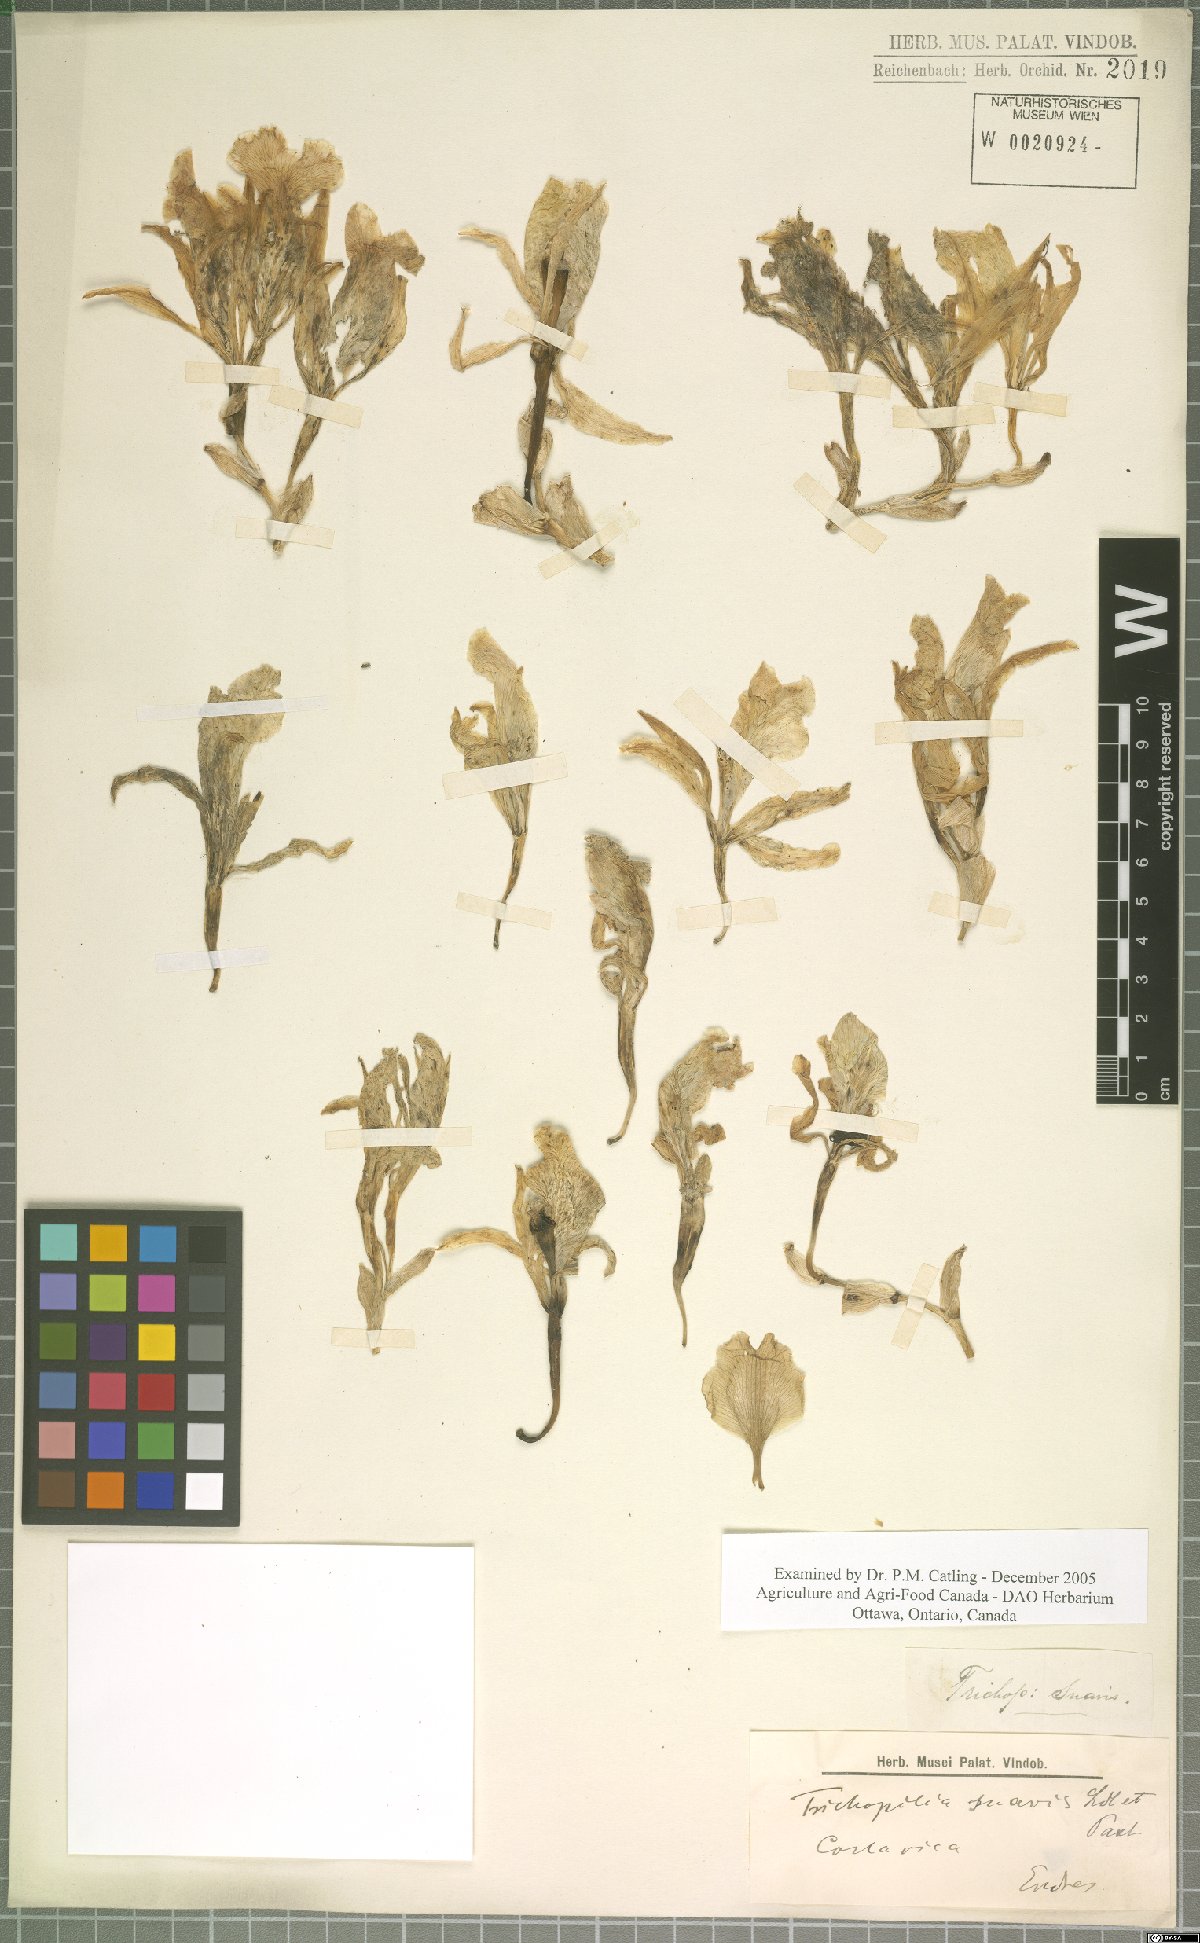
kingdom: Plantae
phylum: Tracheophyta
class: Liliopsida
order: Asparagales
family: Orchidaceae
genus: Trichopilia
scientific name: Trichopilia suavis
